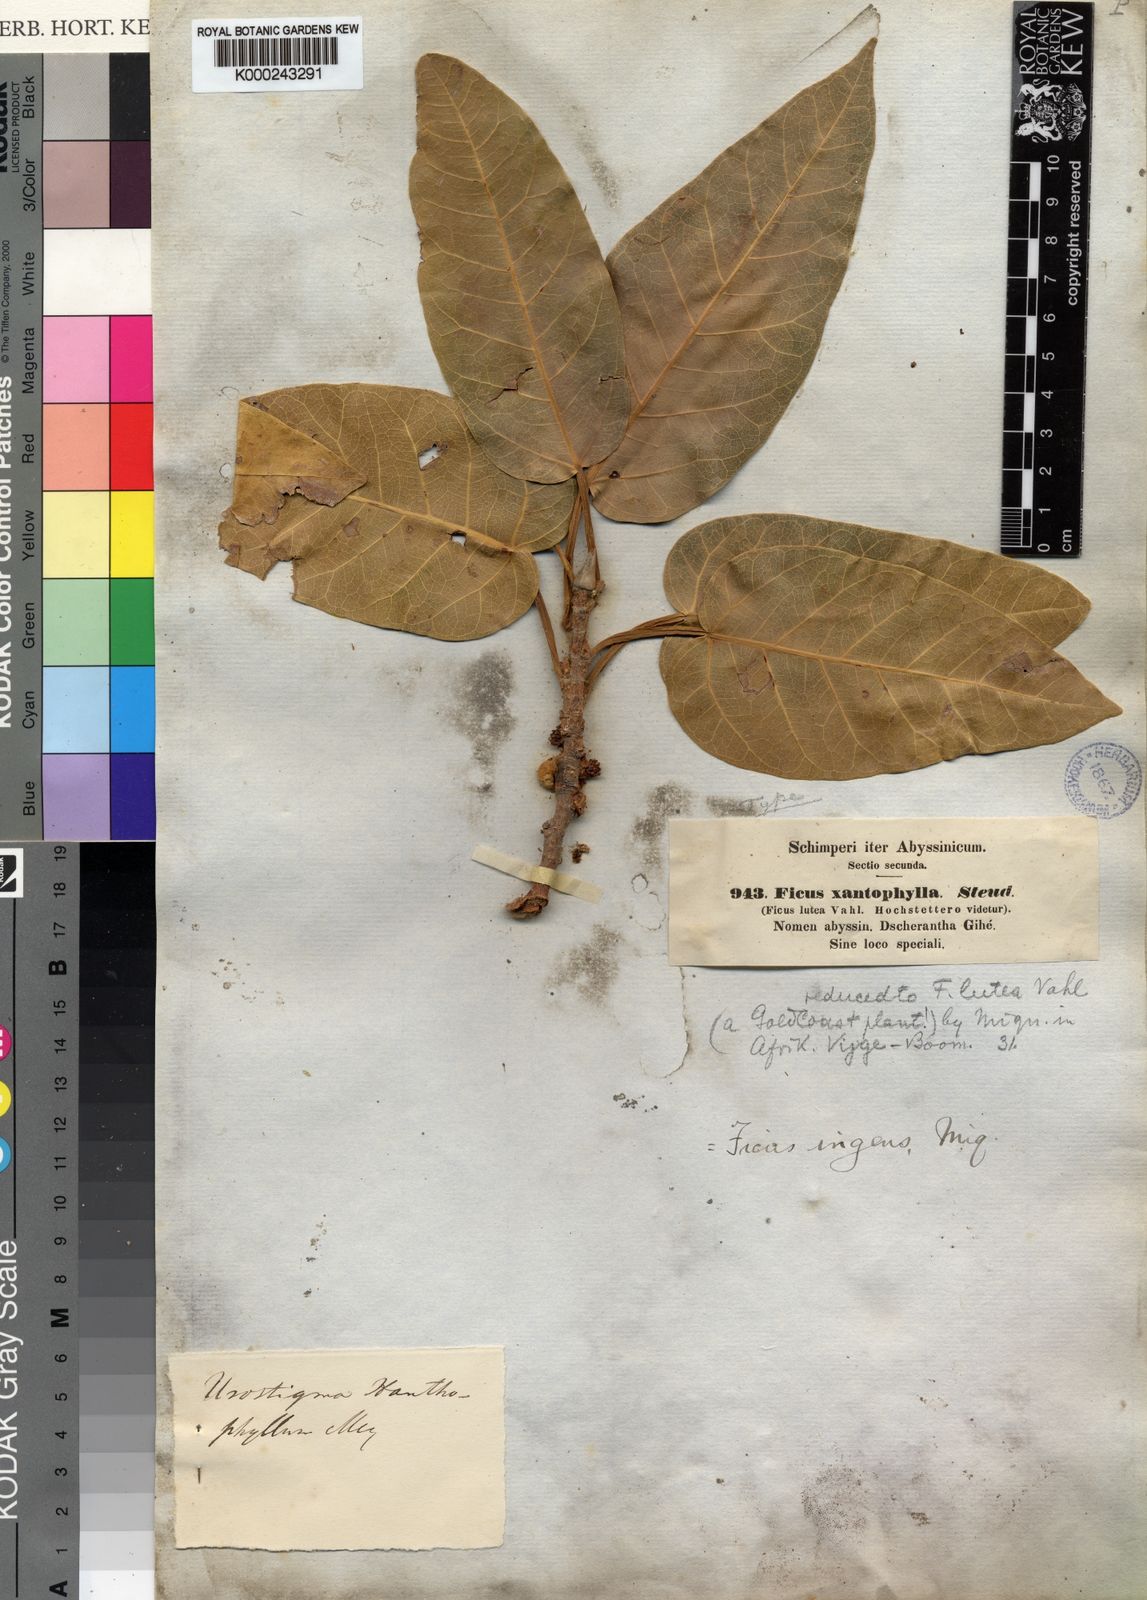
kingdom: Plantae
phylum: Tracheophyta
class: Magnoliopsida
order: Rosales
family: Moraceae
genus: Ficus
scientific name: Ficus ingens
